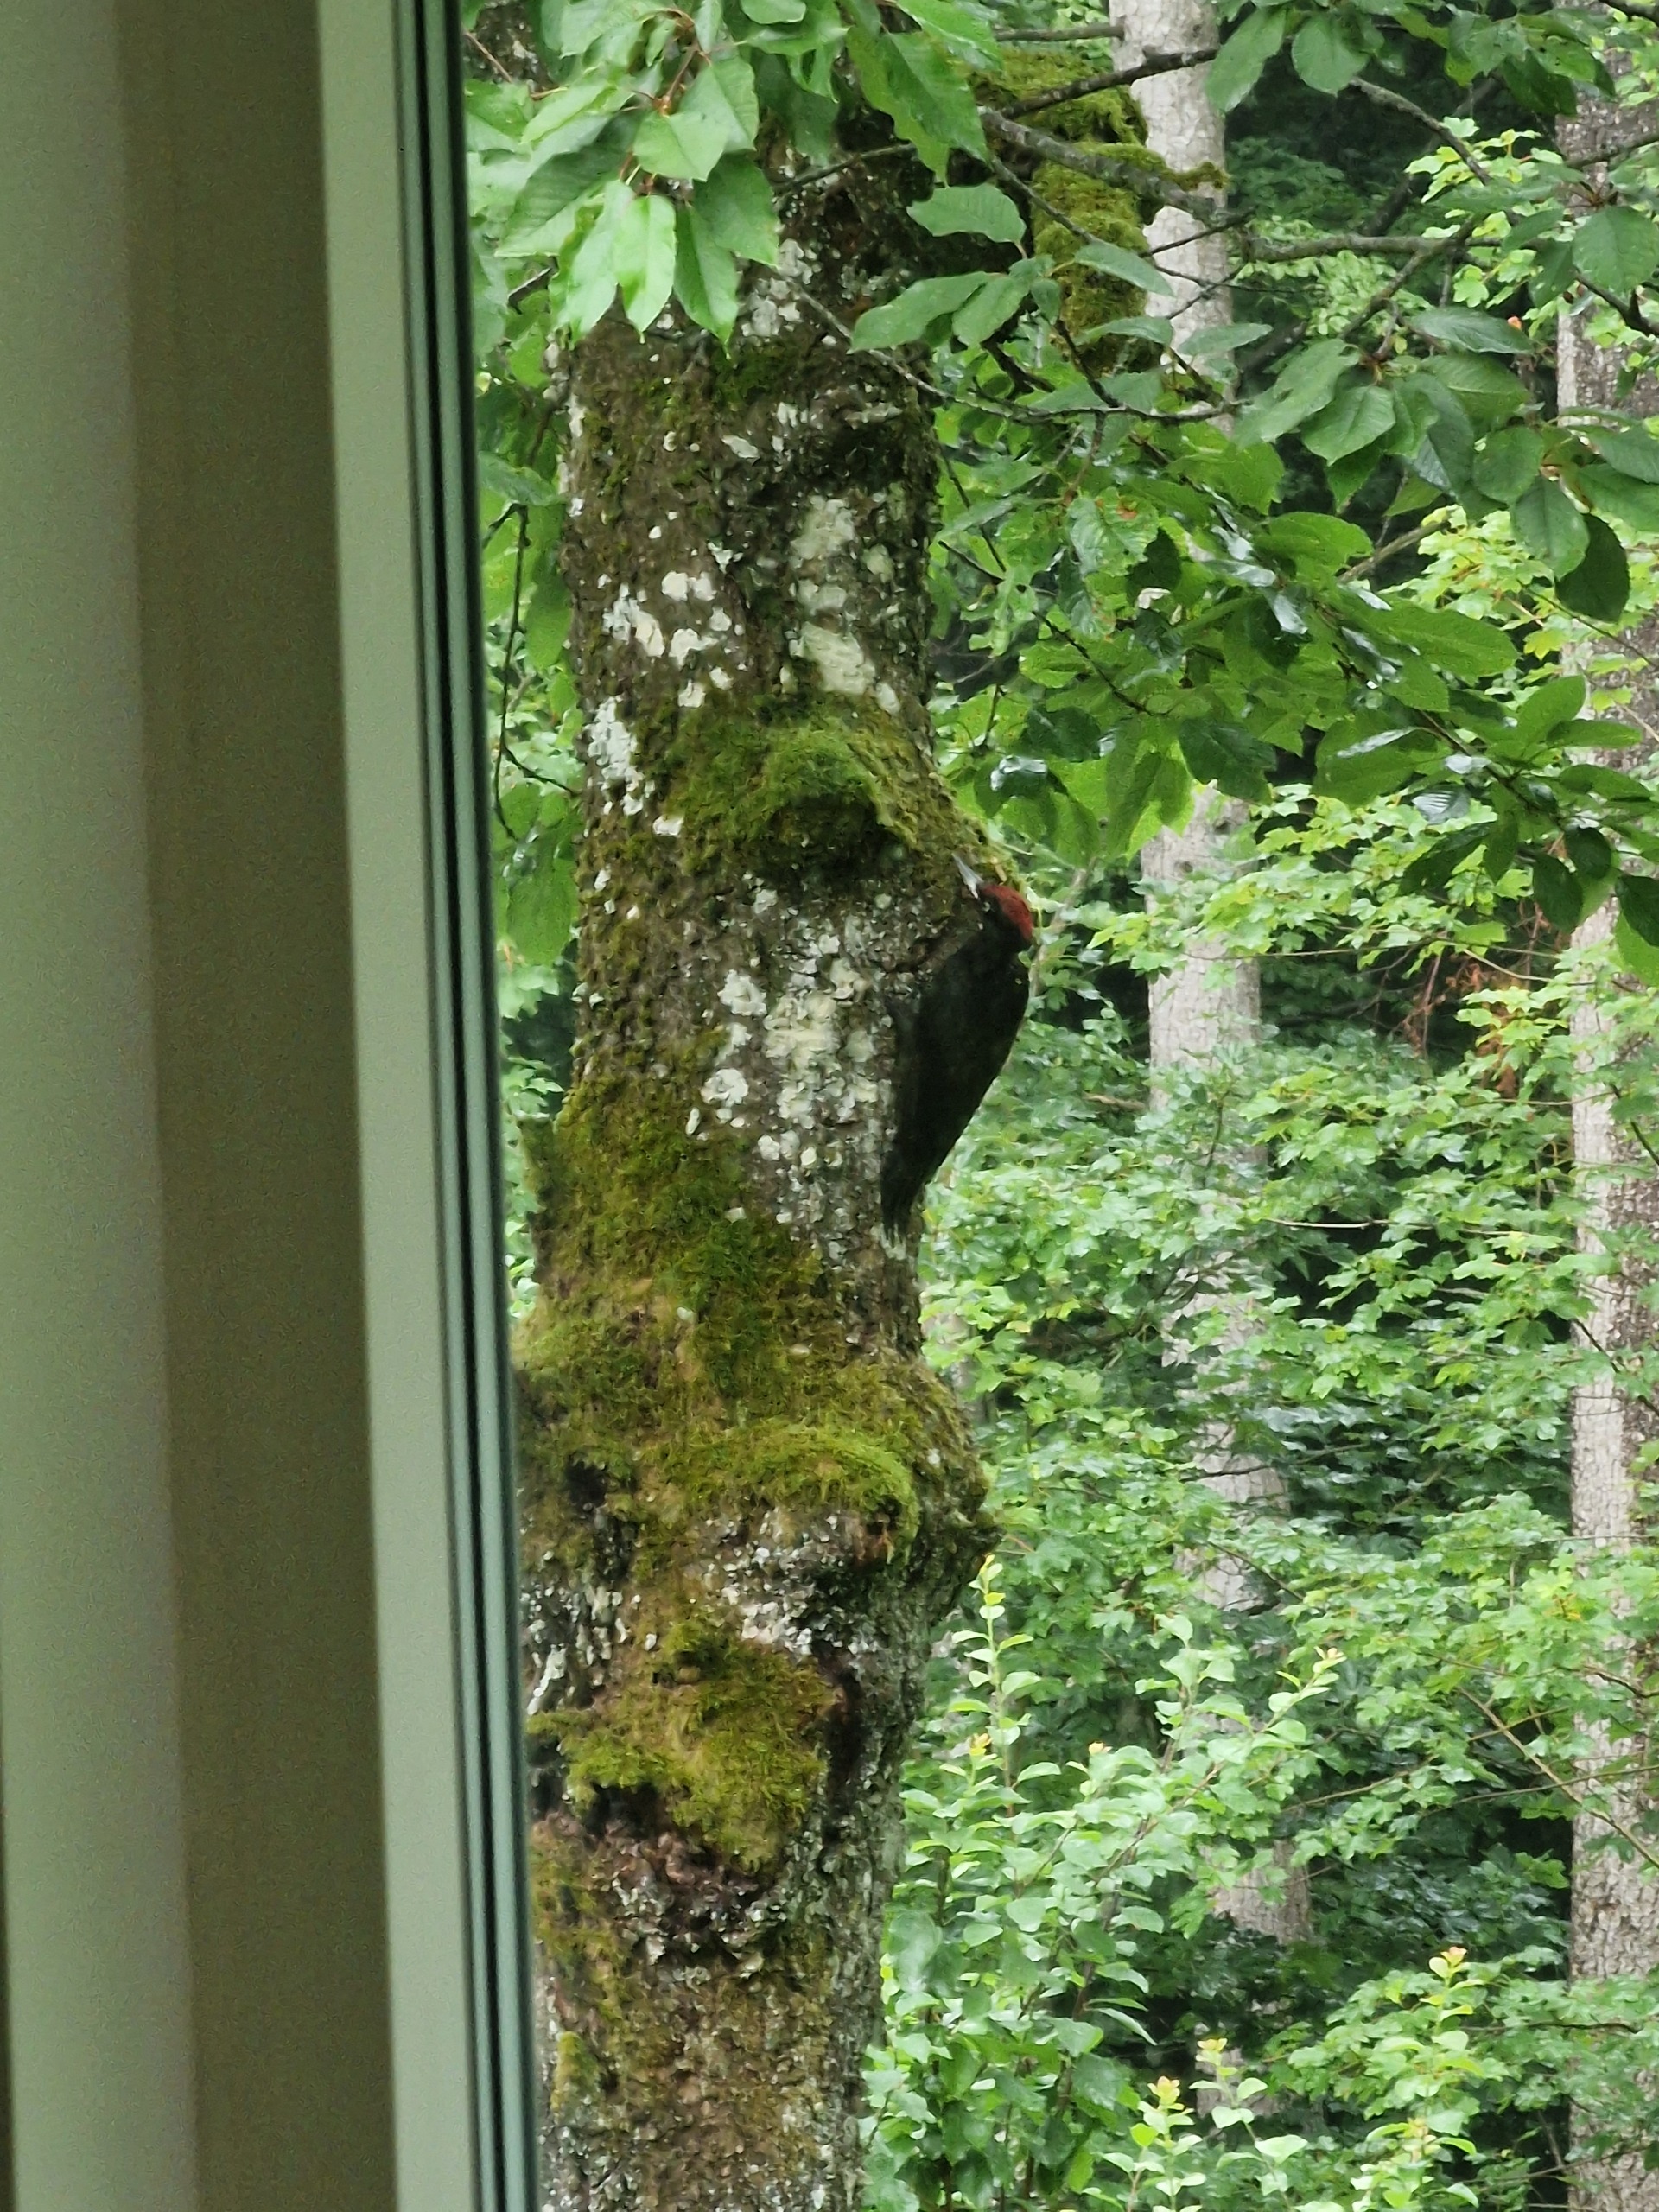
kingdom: Animalia
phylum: Chordata
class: Aves
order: Piciformes
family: Picidae
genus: Dryocopus
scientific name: Dryocopus martius
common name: Sortspætte
